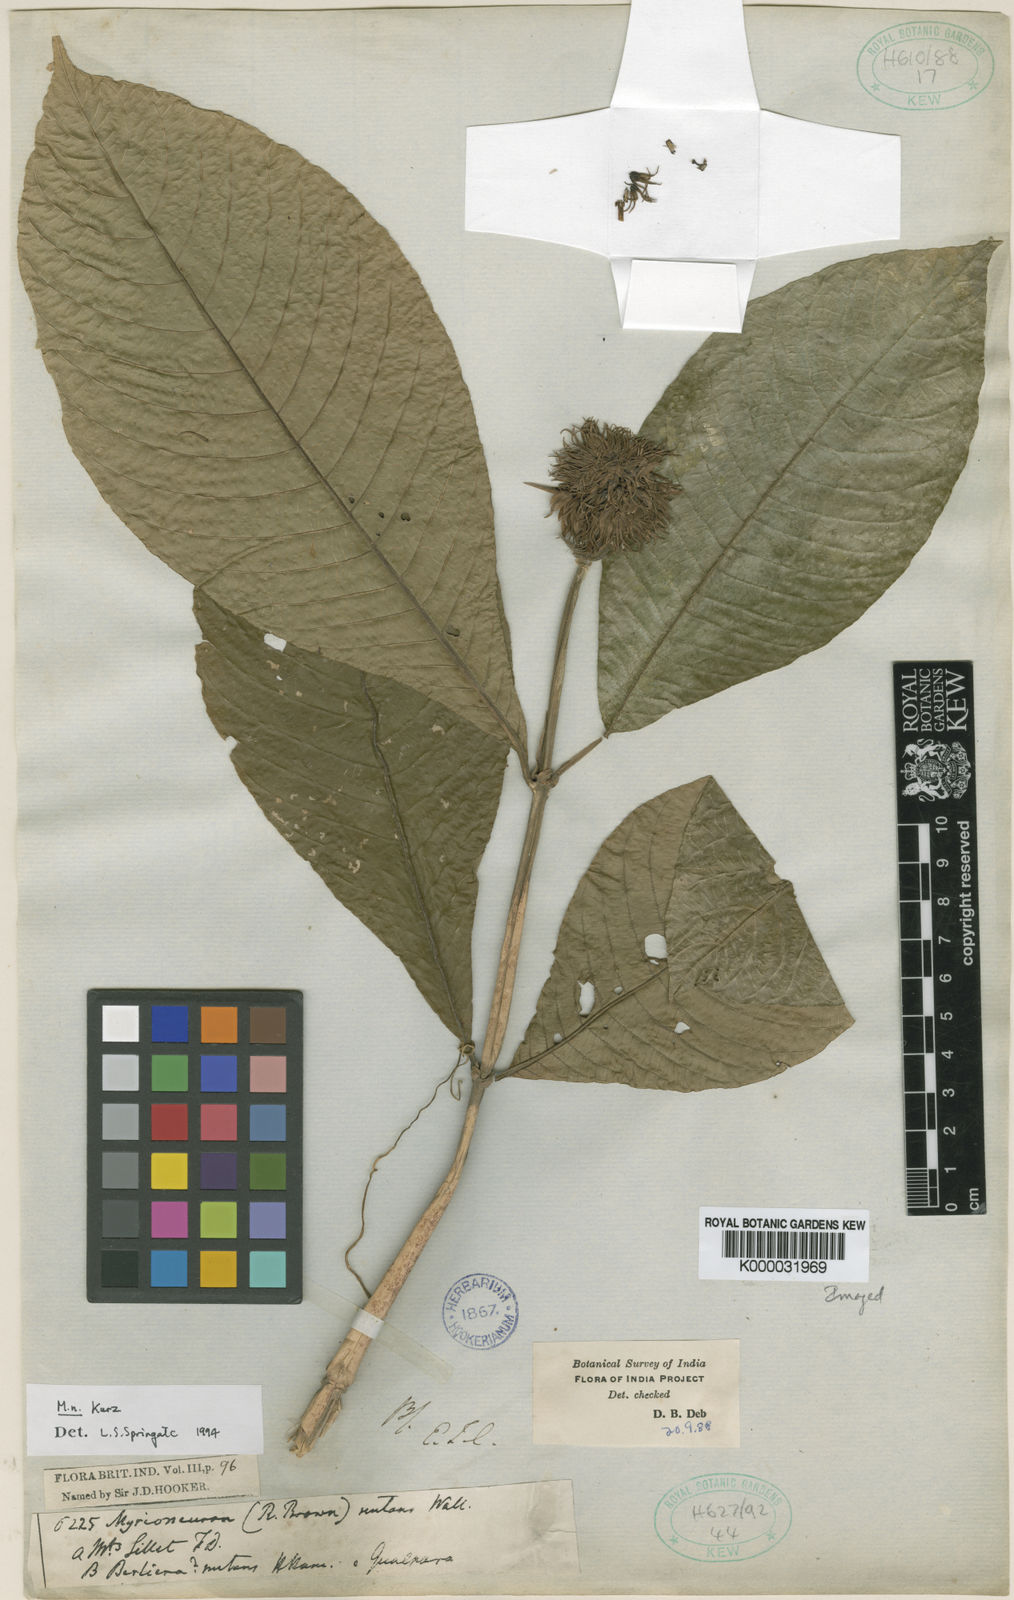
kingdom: Plantae
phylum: Tracheophyta
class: Magnoliopsida
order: Gentianales
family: Rubiaceae
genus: Mycetia
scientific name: Mycetia nutans
